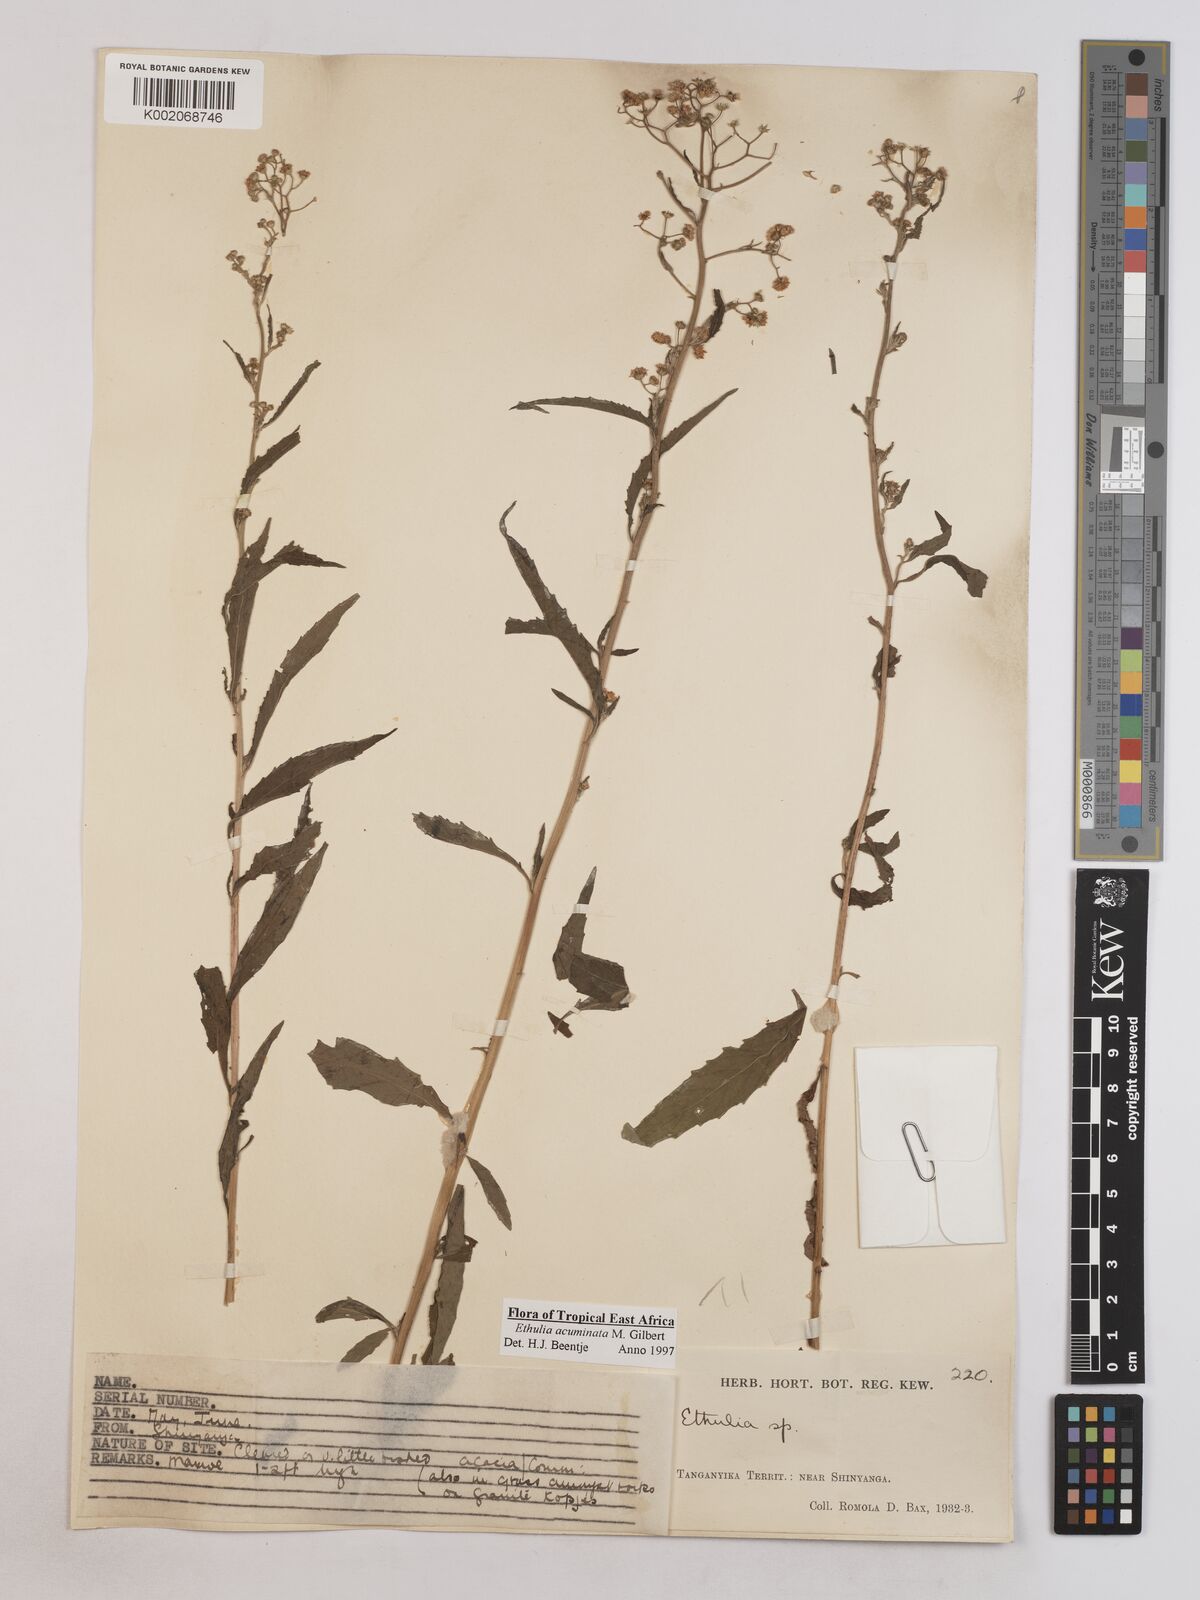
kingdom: Plantae
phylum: Tracheophyta
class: Magnoliopsida
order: Asterales
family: Asteraceae
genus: Ethulia
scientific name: Ethulia acuminata
